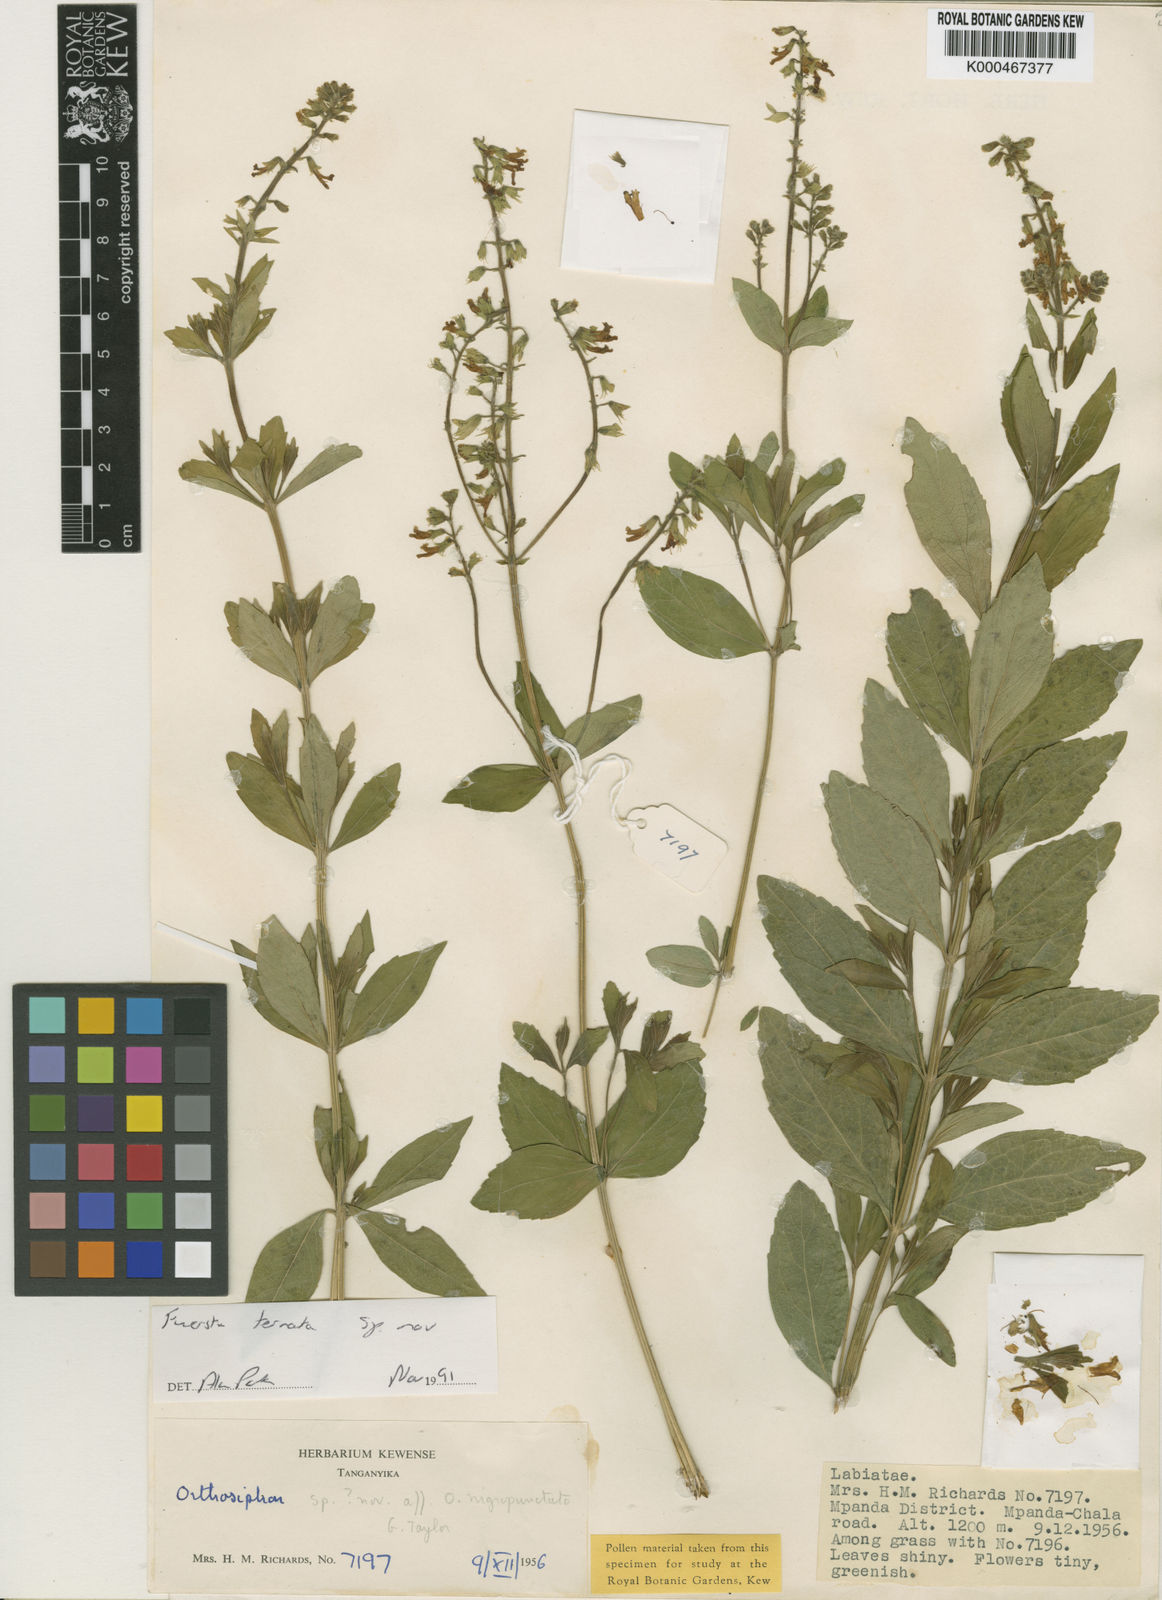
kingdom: Plantae
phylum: Tracheophyta
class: Magnoliopsida
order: Lamiales
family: Lamiaceae
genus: Fuerstia
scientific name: Fuerstia ternata
